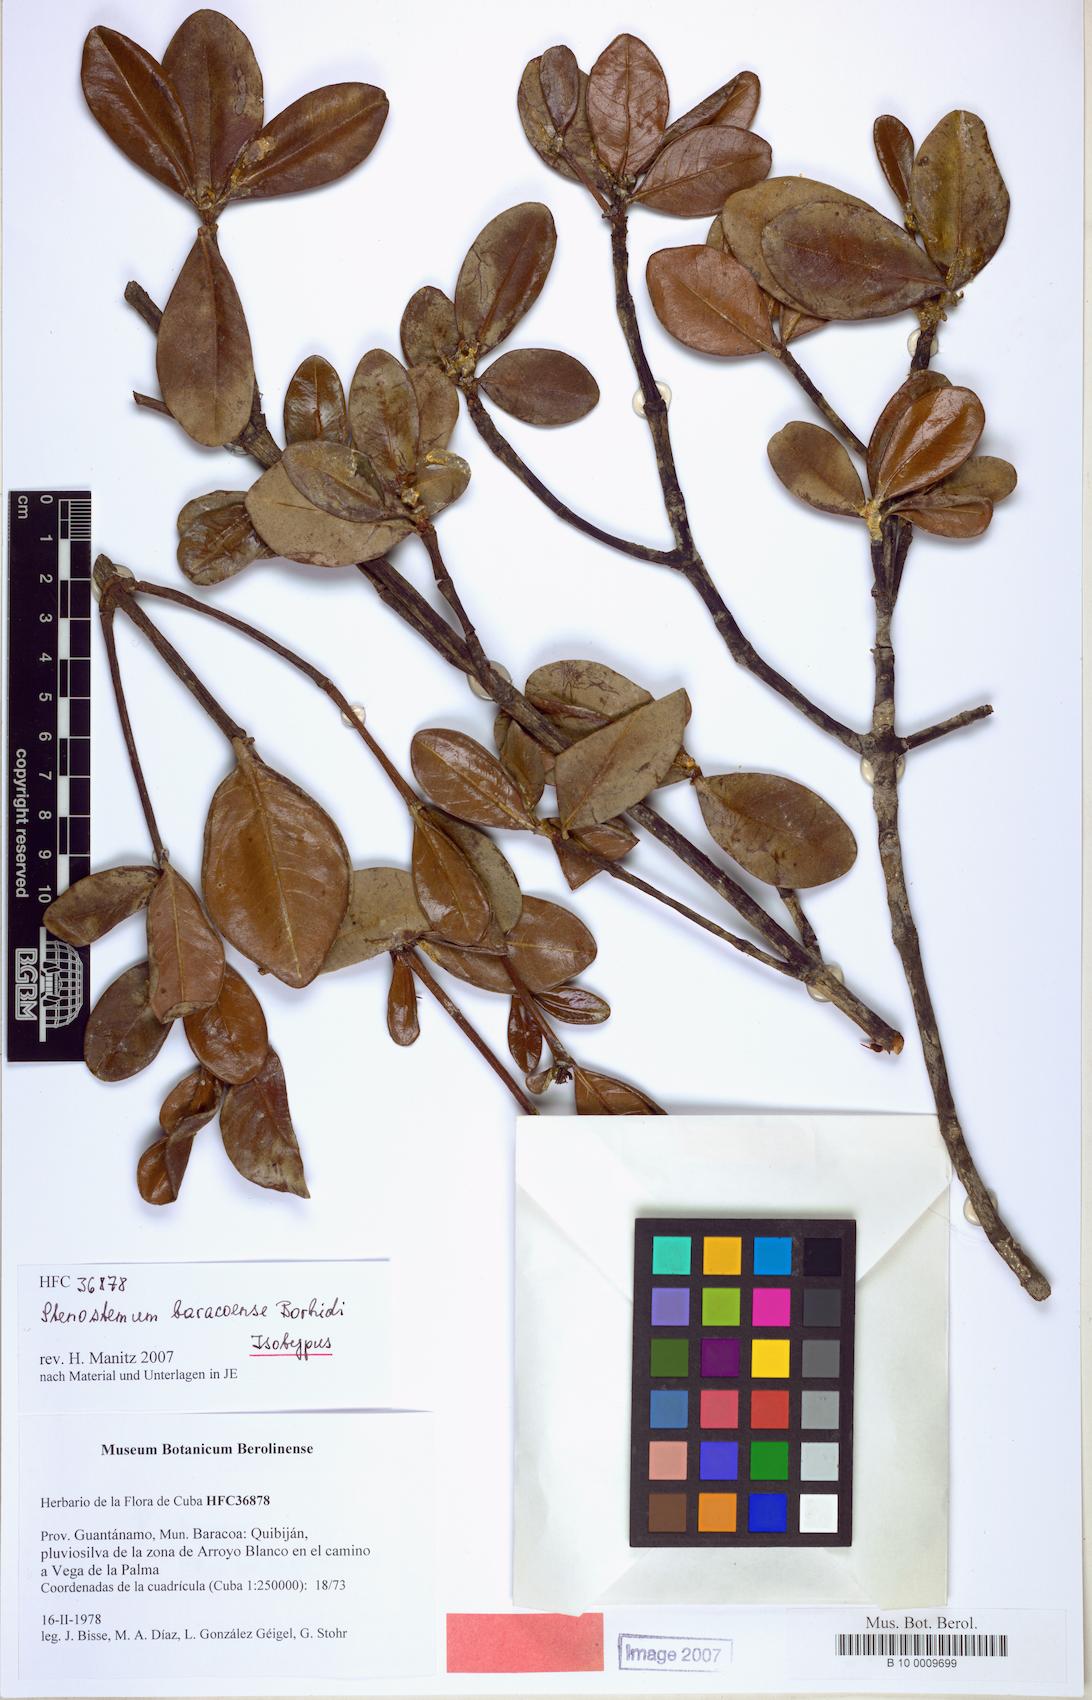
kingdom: Plantae
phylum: Tracheophyta
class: Magnoliopsida
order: Gentianales
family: Rubiaceae
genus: Stenostomum
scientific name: Stenostomum baracoense
